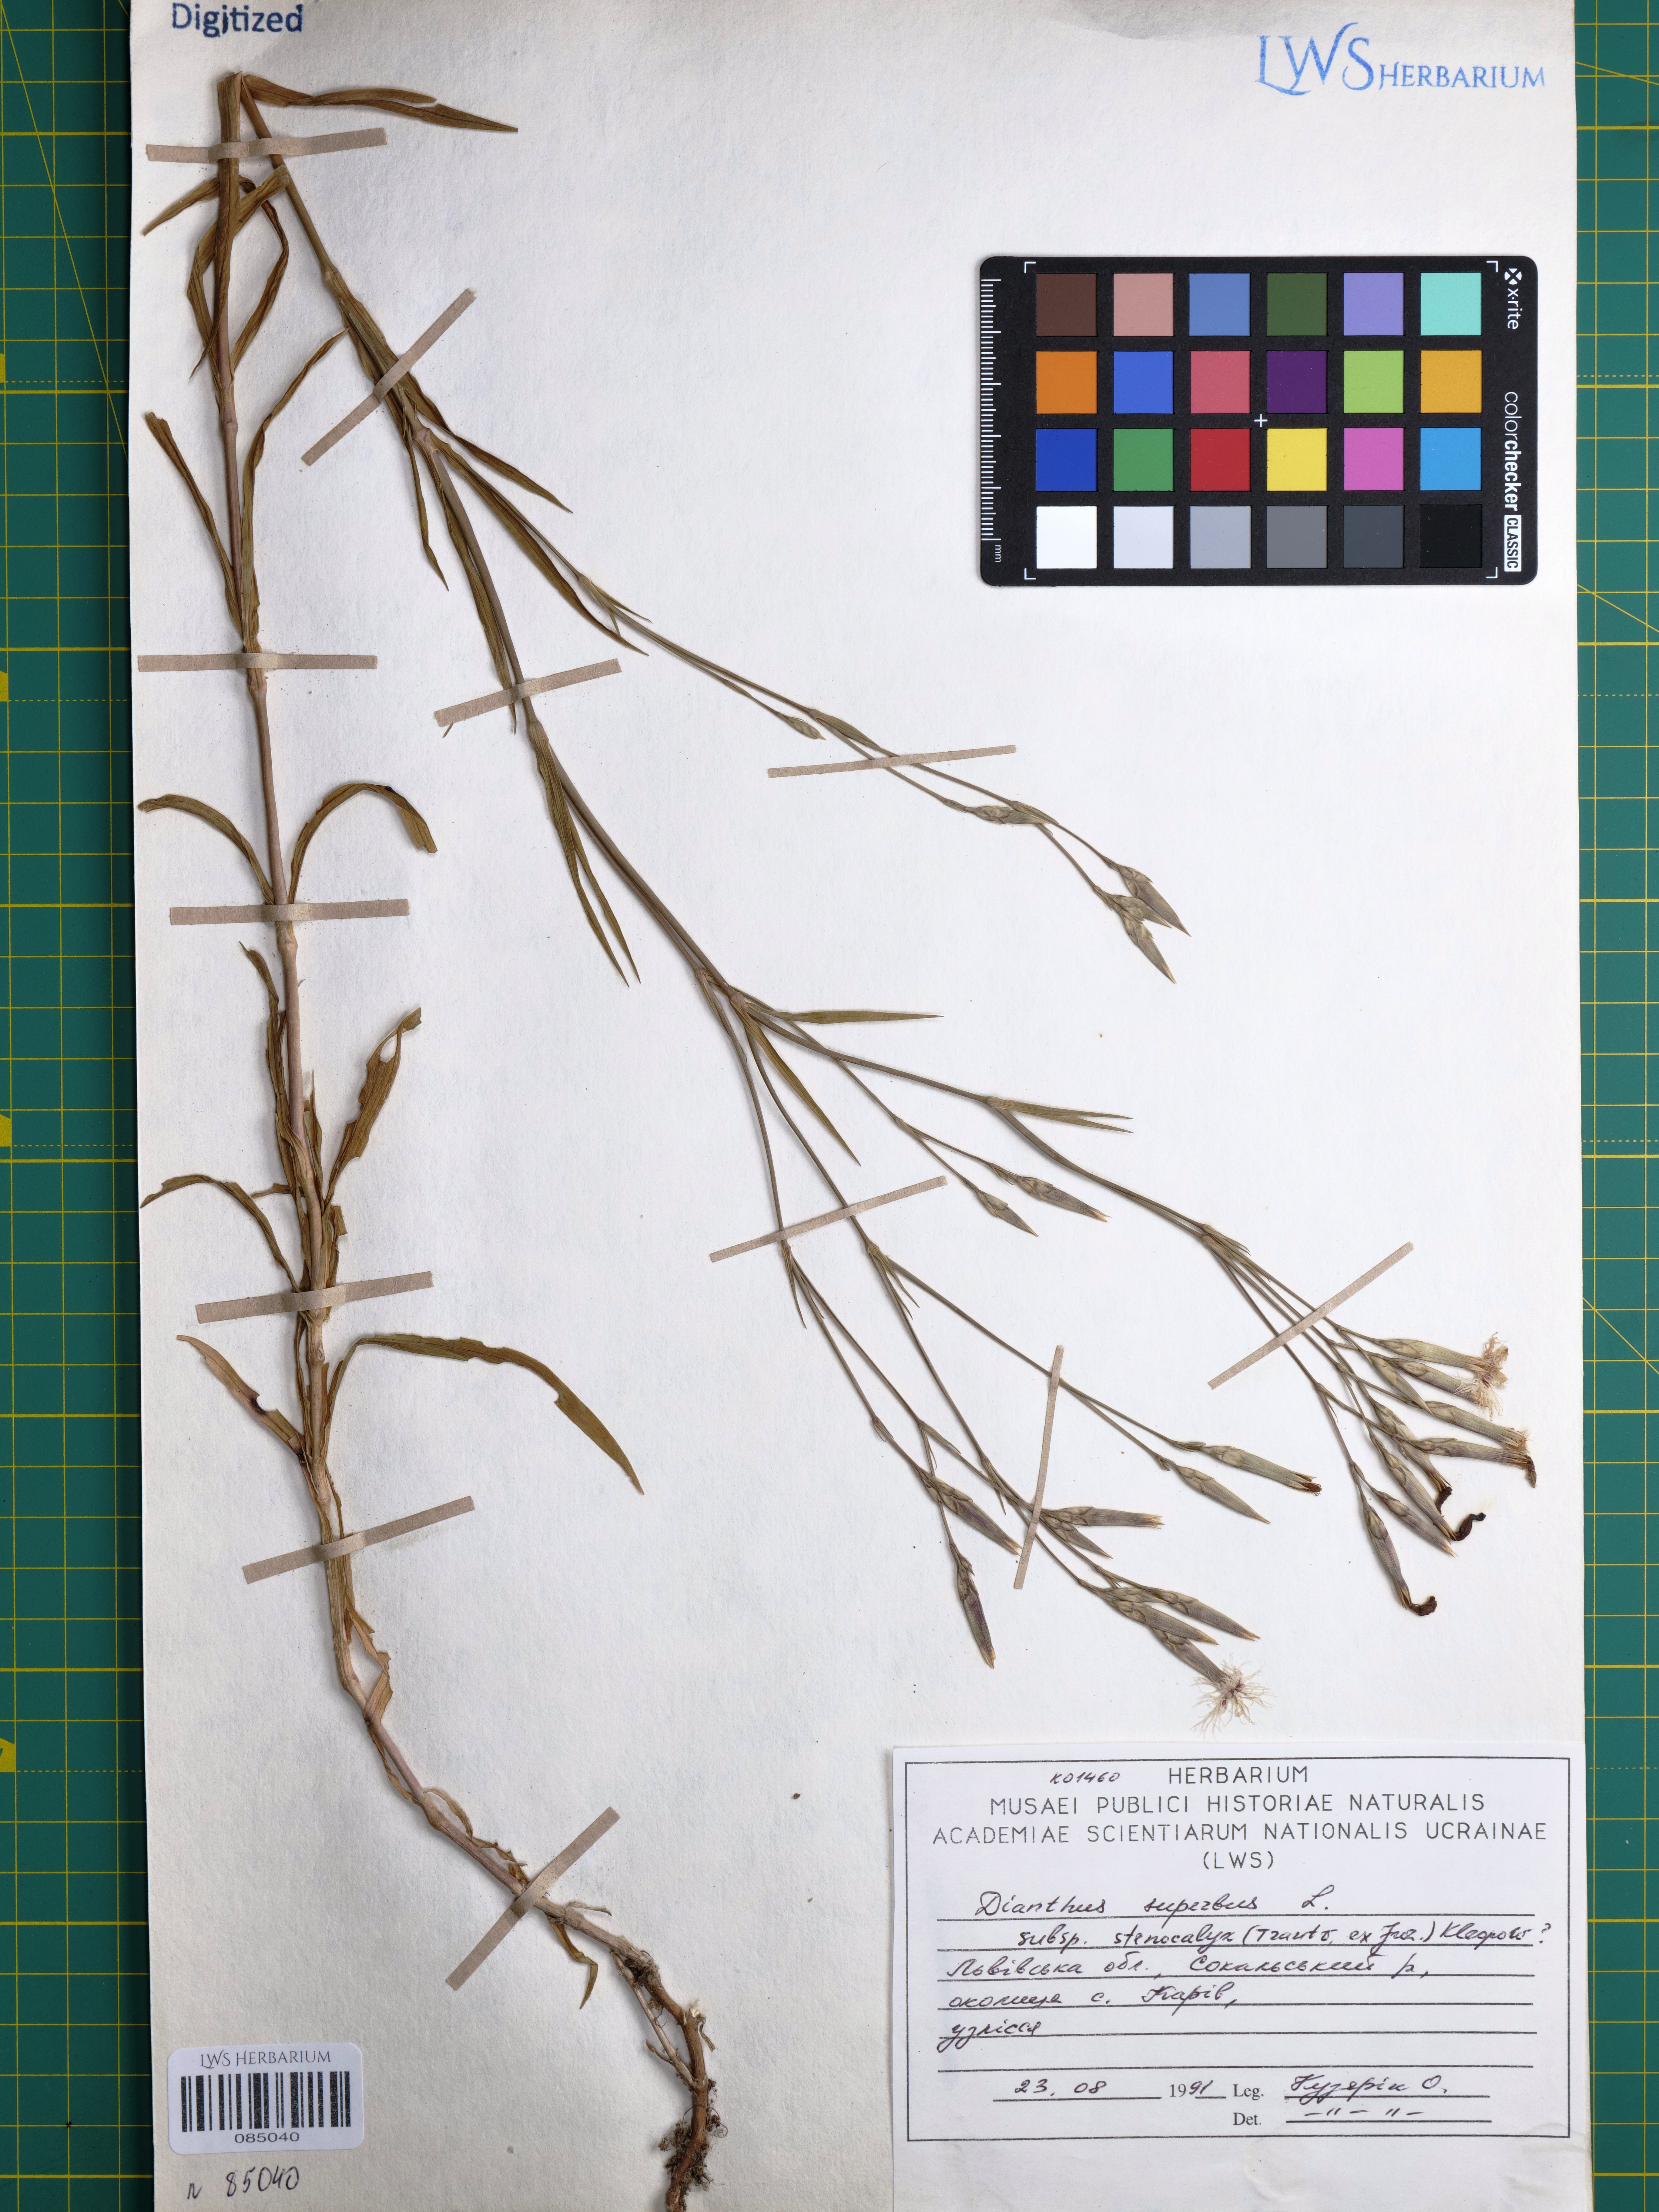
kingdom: Plantae
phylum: Tracheophyta
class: Magnoliopsida
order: Caryophyllales
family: Caryophyllaceae
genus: Dianthus
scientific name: Dianthus superbus
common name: Fringed pink
